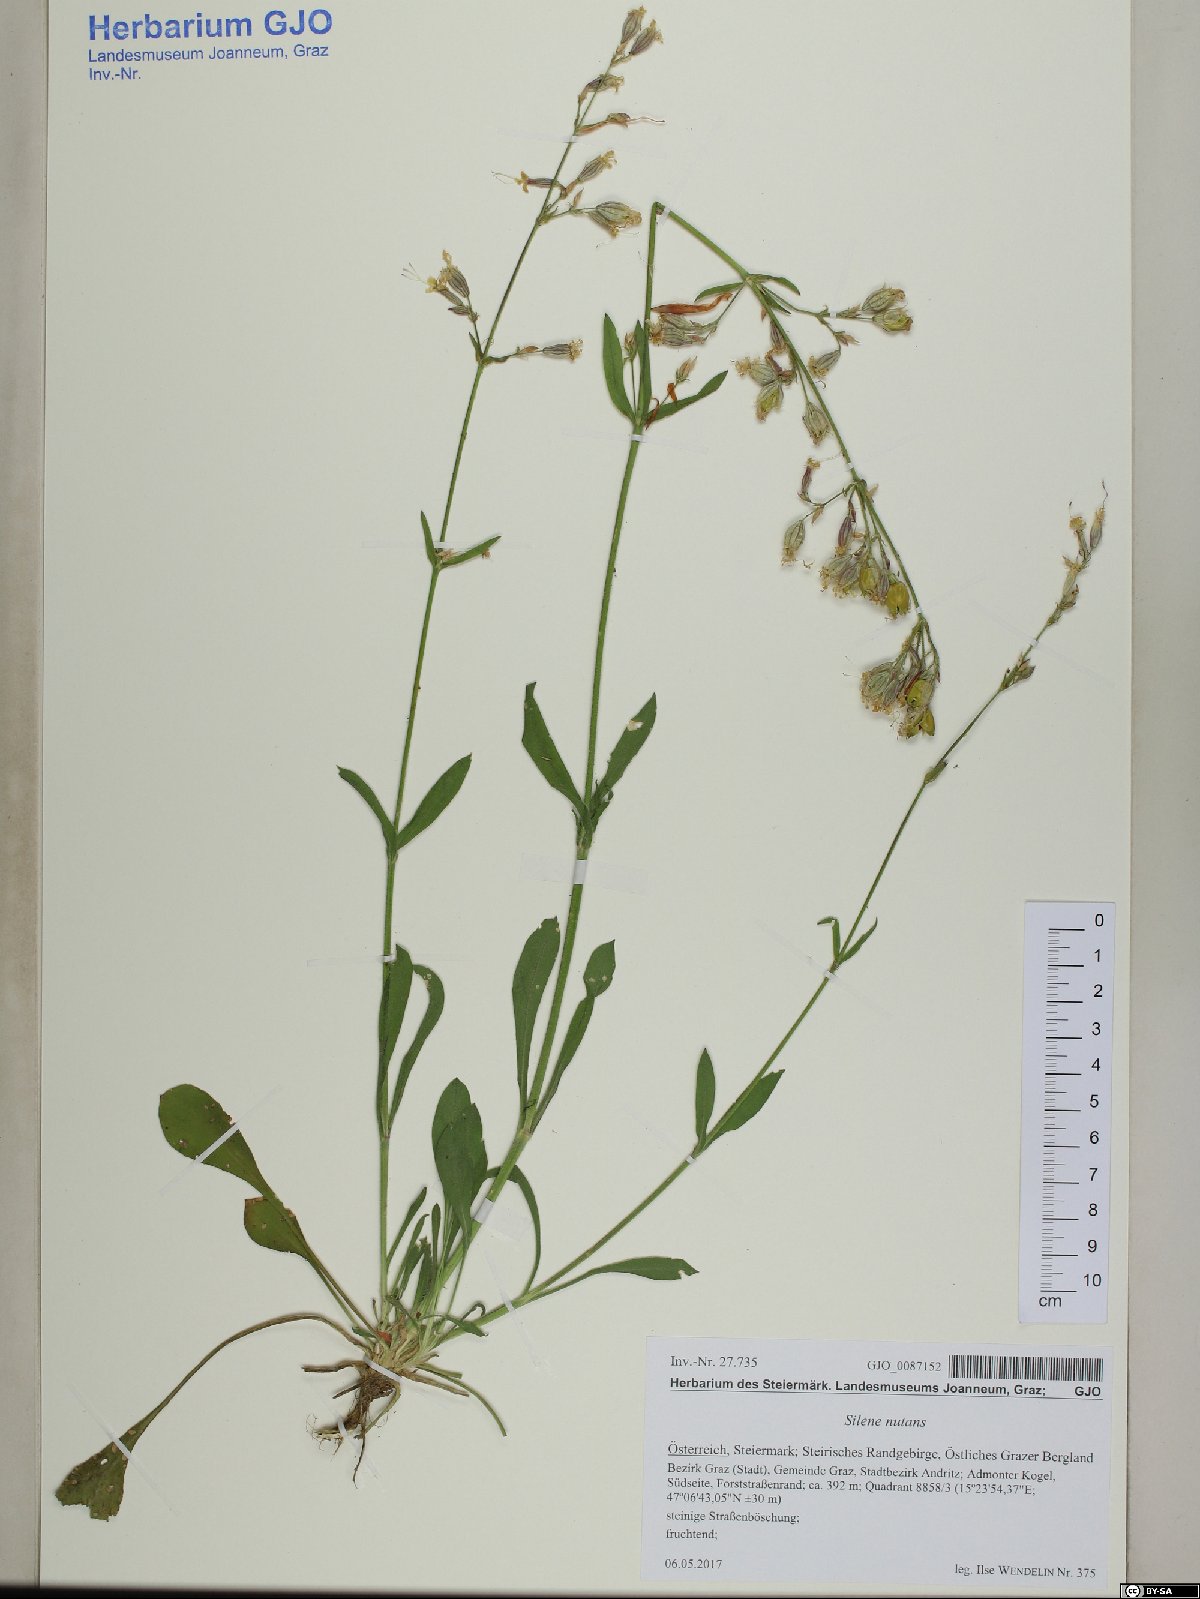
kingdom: Plantae
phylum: Tracheophyta
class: Magnoliopsida
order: Caryophyllales
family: Caryophyllaceae
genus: Silene
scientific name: Silene nutans
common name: Nottingham catchfly
